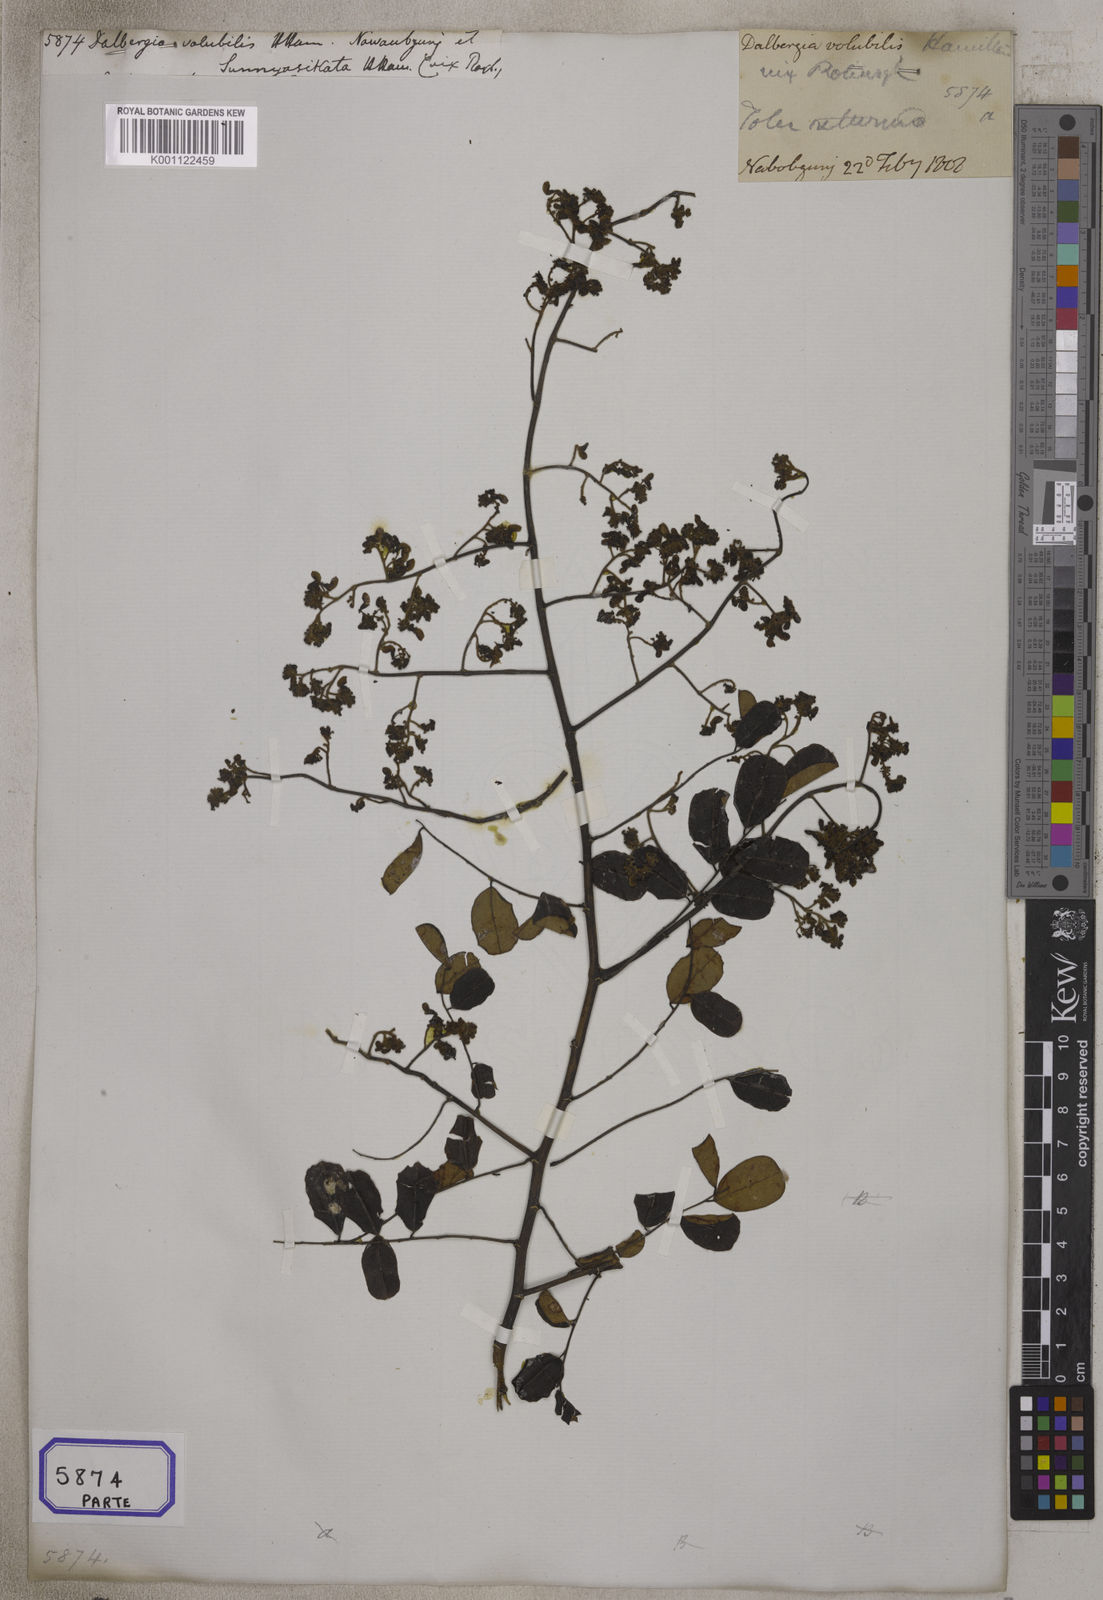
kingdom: Plantae
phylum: Tracheophyta
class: Magnoliopsida
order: Fabales
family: Fabaceae
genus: Dalbergia
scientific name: Dalbergia volubilis
